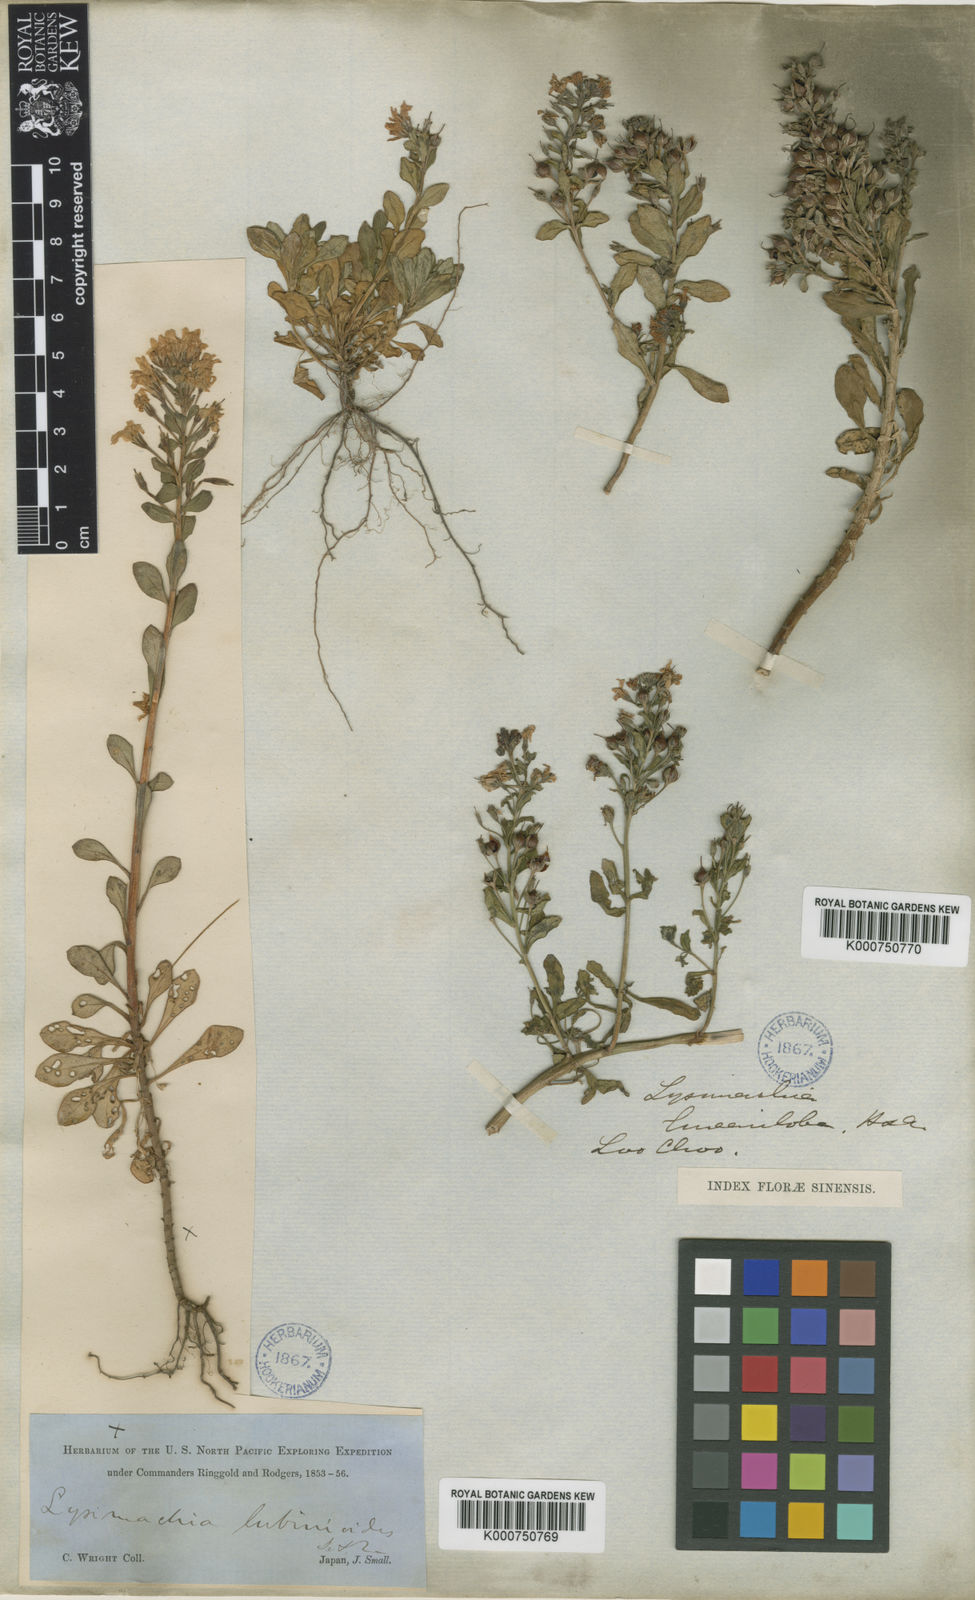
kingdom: Plantae
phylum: Tracheophyta
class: Magnoliopsida
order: Ericales
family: Primulaceae
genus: Lysimachia
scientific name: Lysimachia mauritiana
